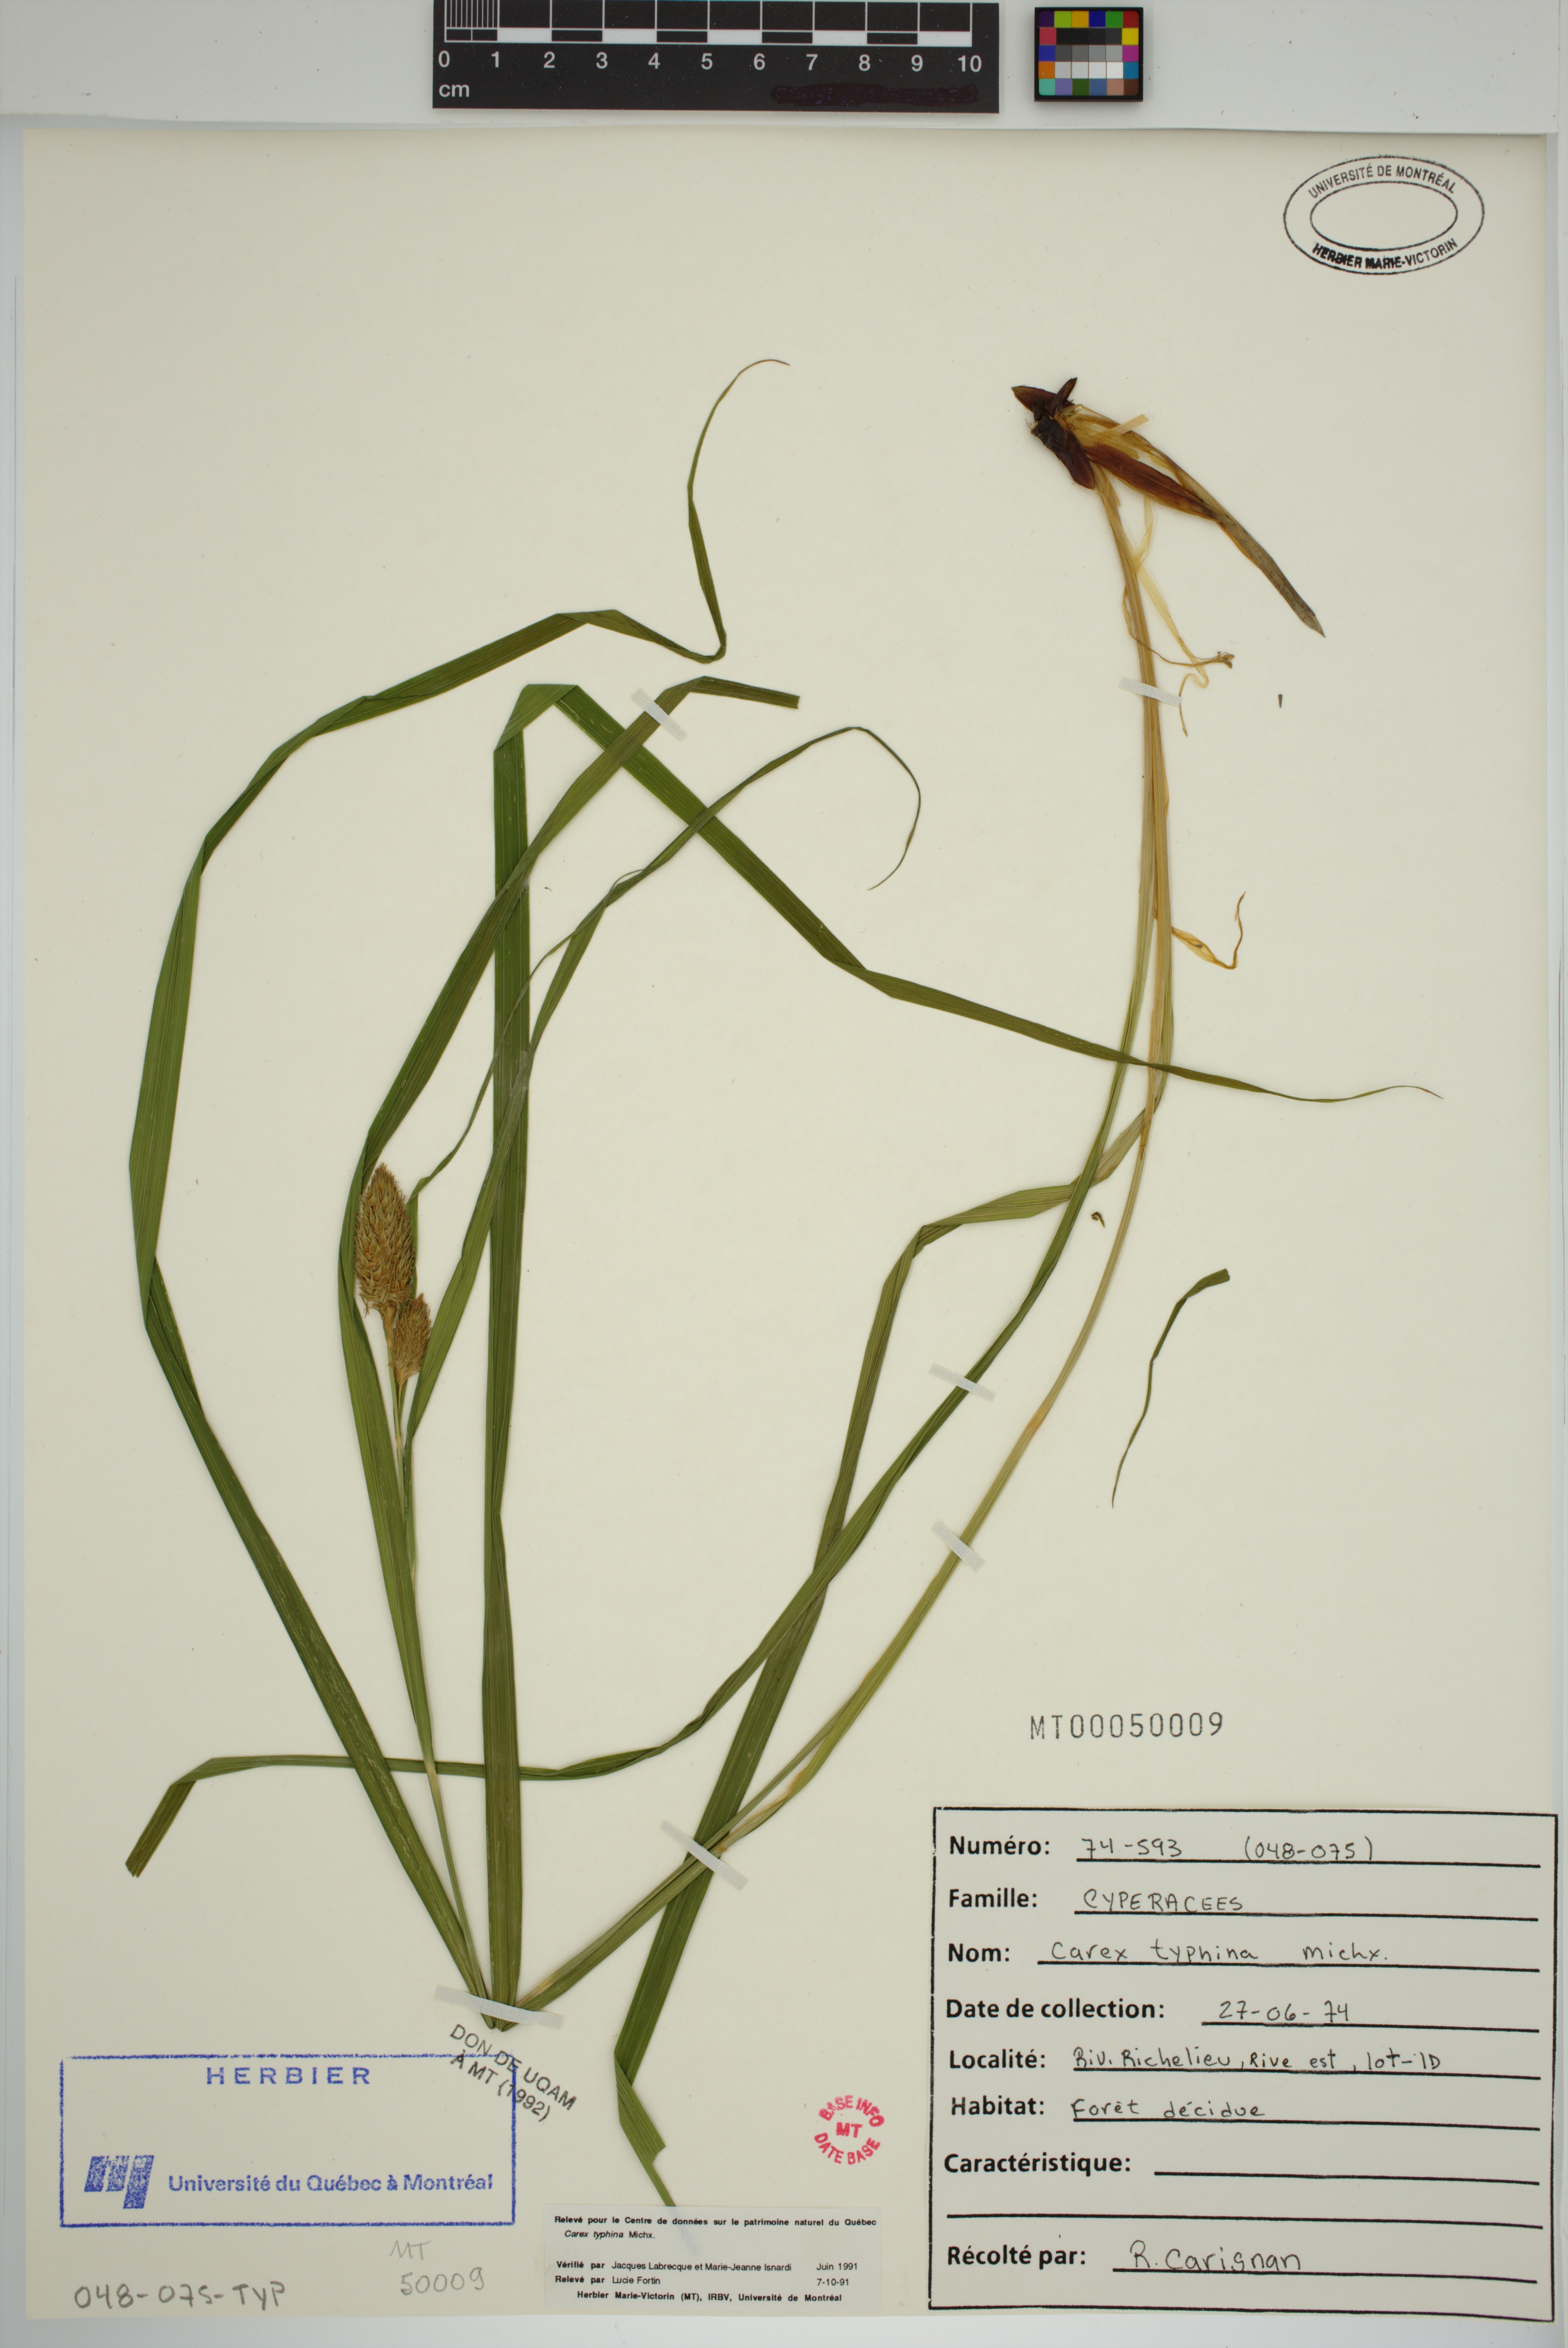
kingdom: Plantae
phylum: Tracheophyta
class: Liliopsida
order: Poales
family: Cyperaceae
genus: Carex
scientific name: Carex typhina
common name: Cattail sedge
